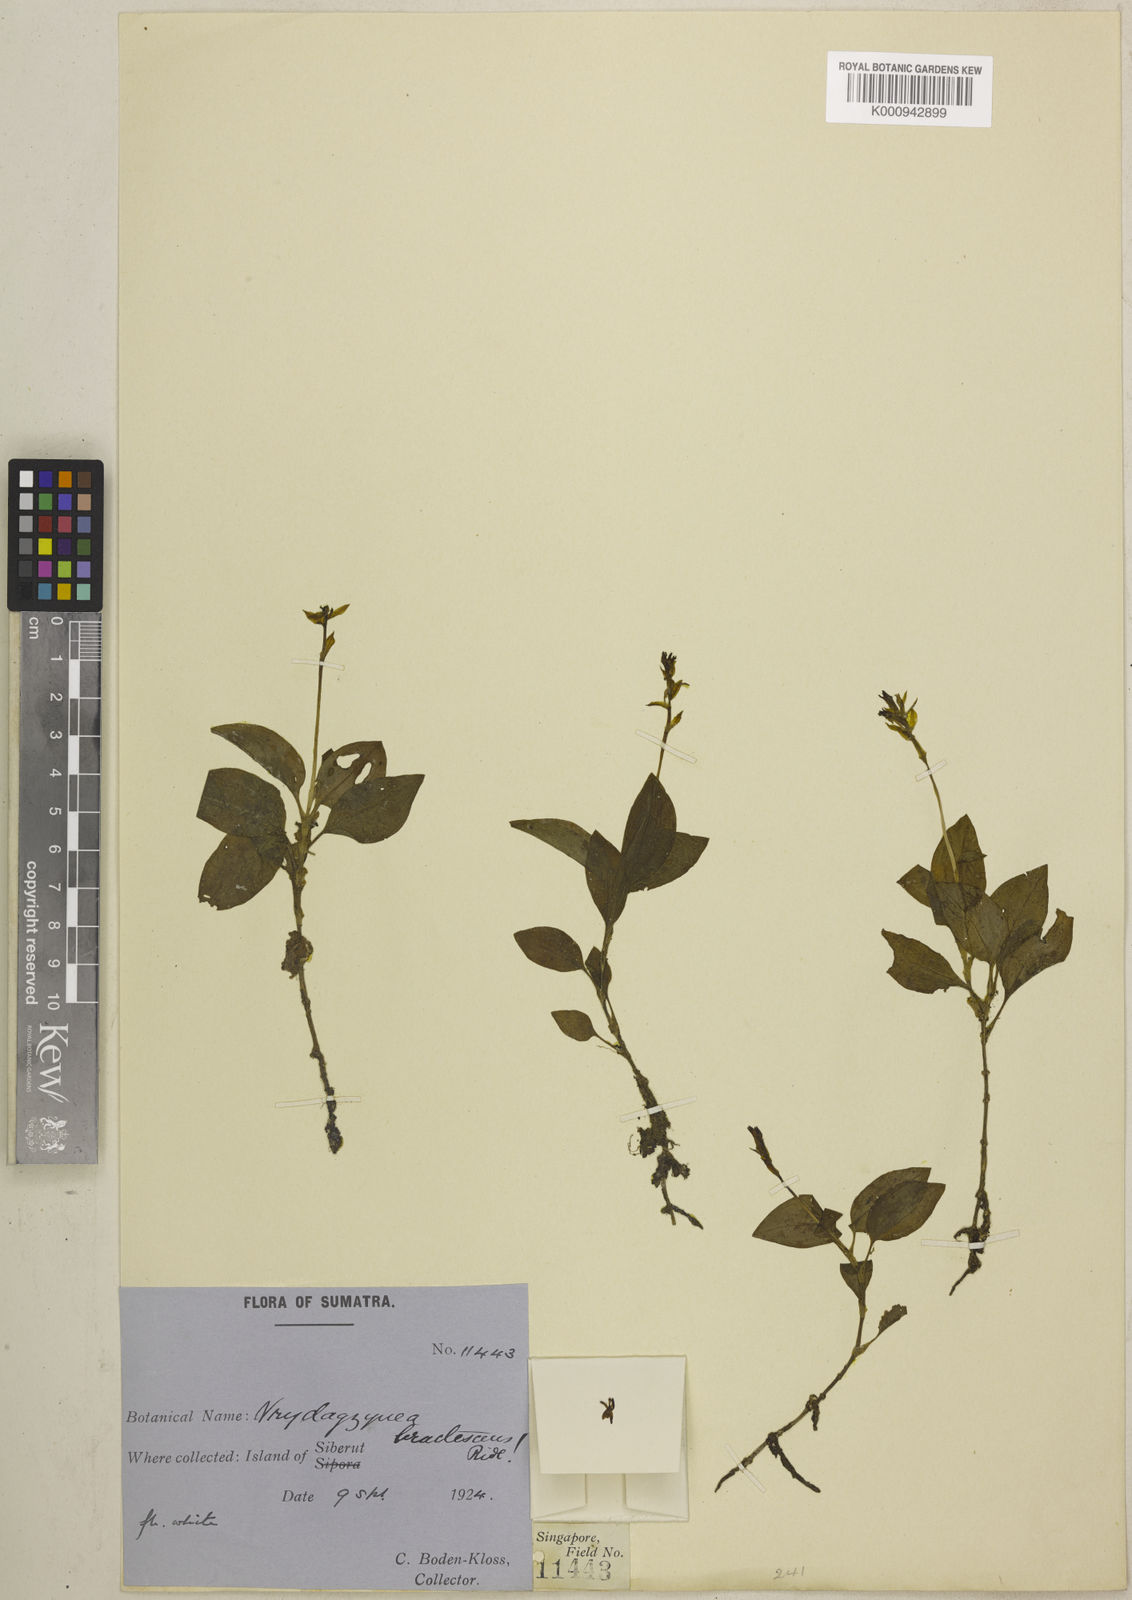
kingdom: Plantae
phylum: Tracheophyta
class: Liliopsida
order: Asparagales
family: Orchidaceae
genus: Vrydagzynea
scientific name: Vrydagzynea bractescens
